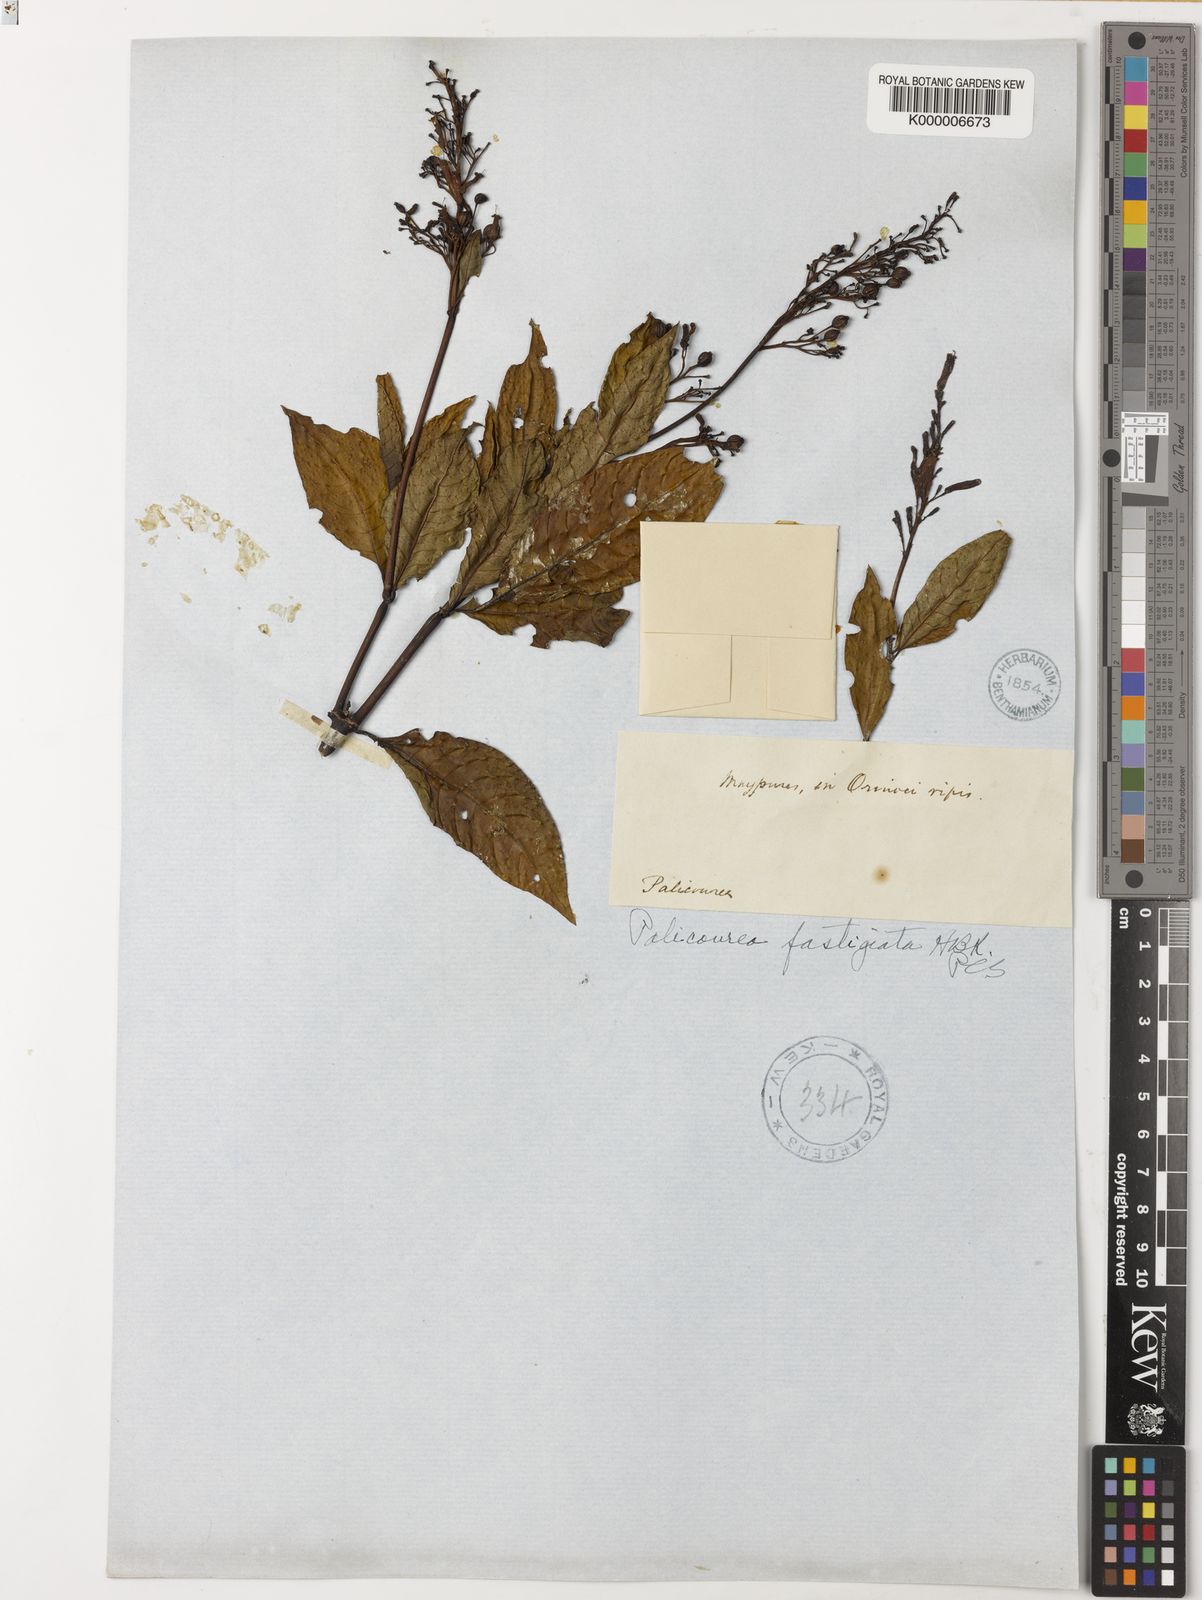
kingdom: Plantae
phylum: Tracheophyta
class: Magnoliopsida
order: Gentianales
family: Rubiaceae
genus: Palicourea
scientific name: Palicourea croceoides
